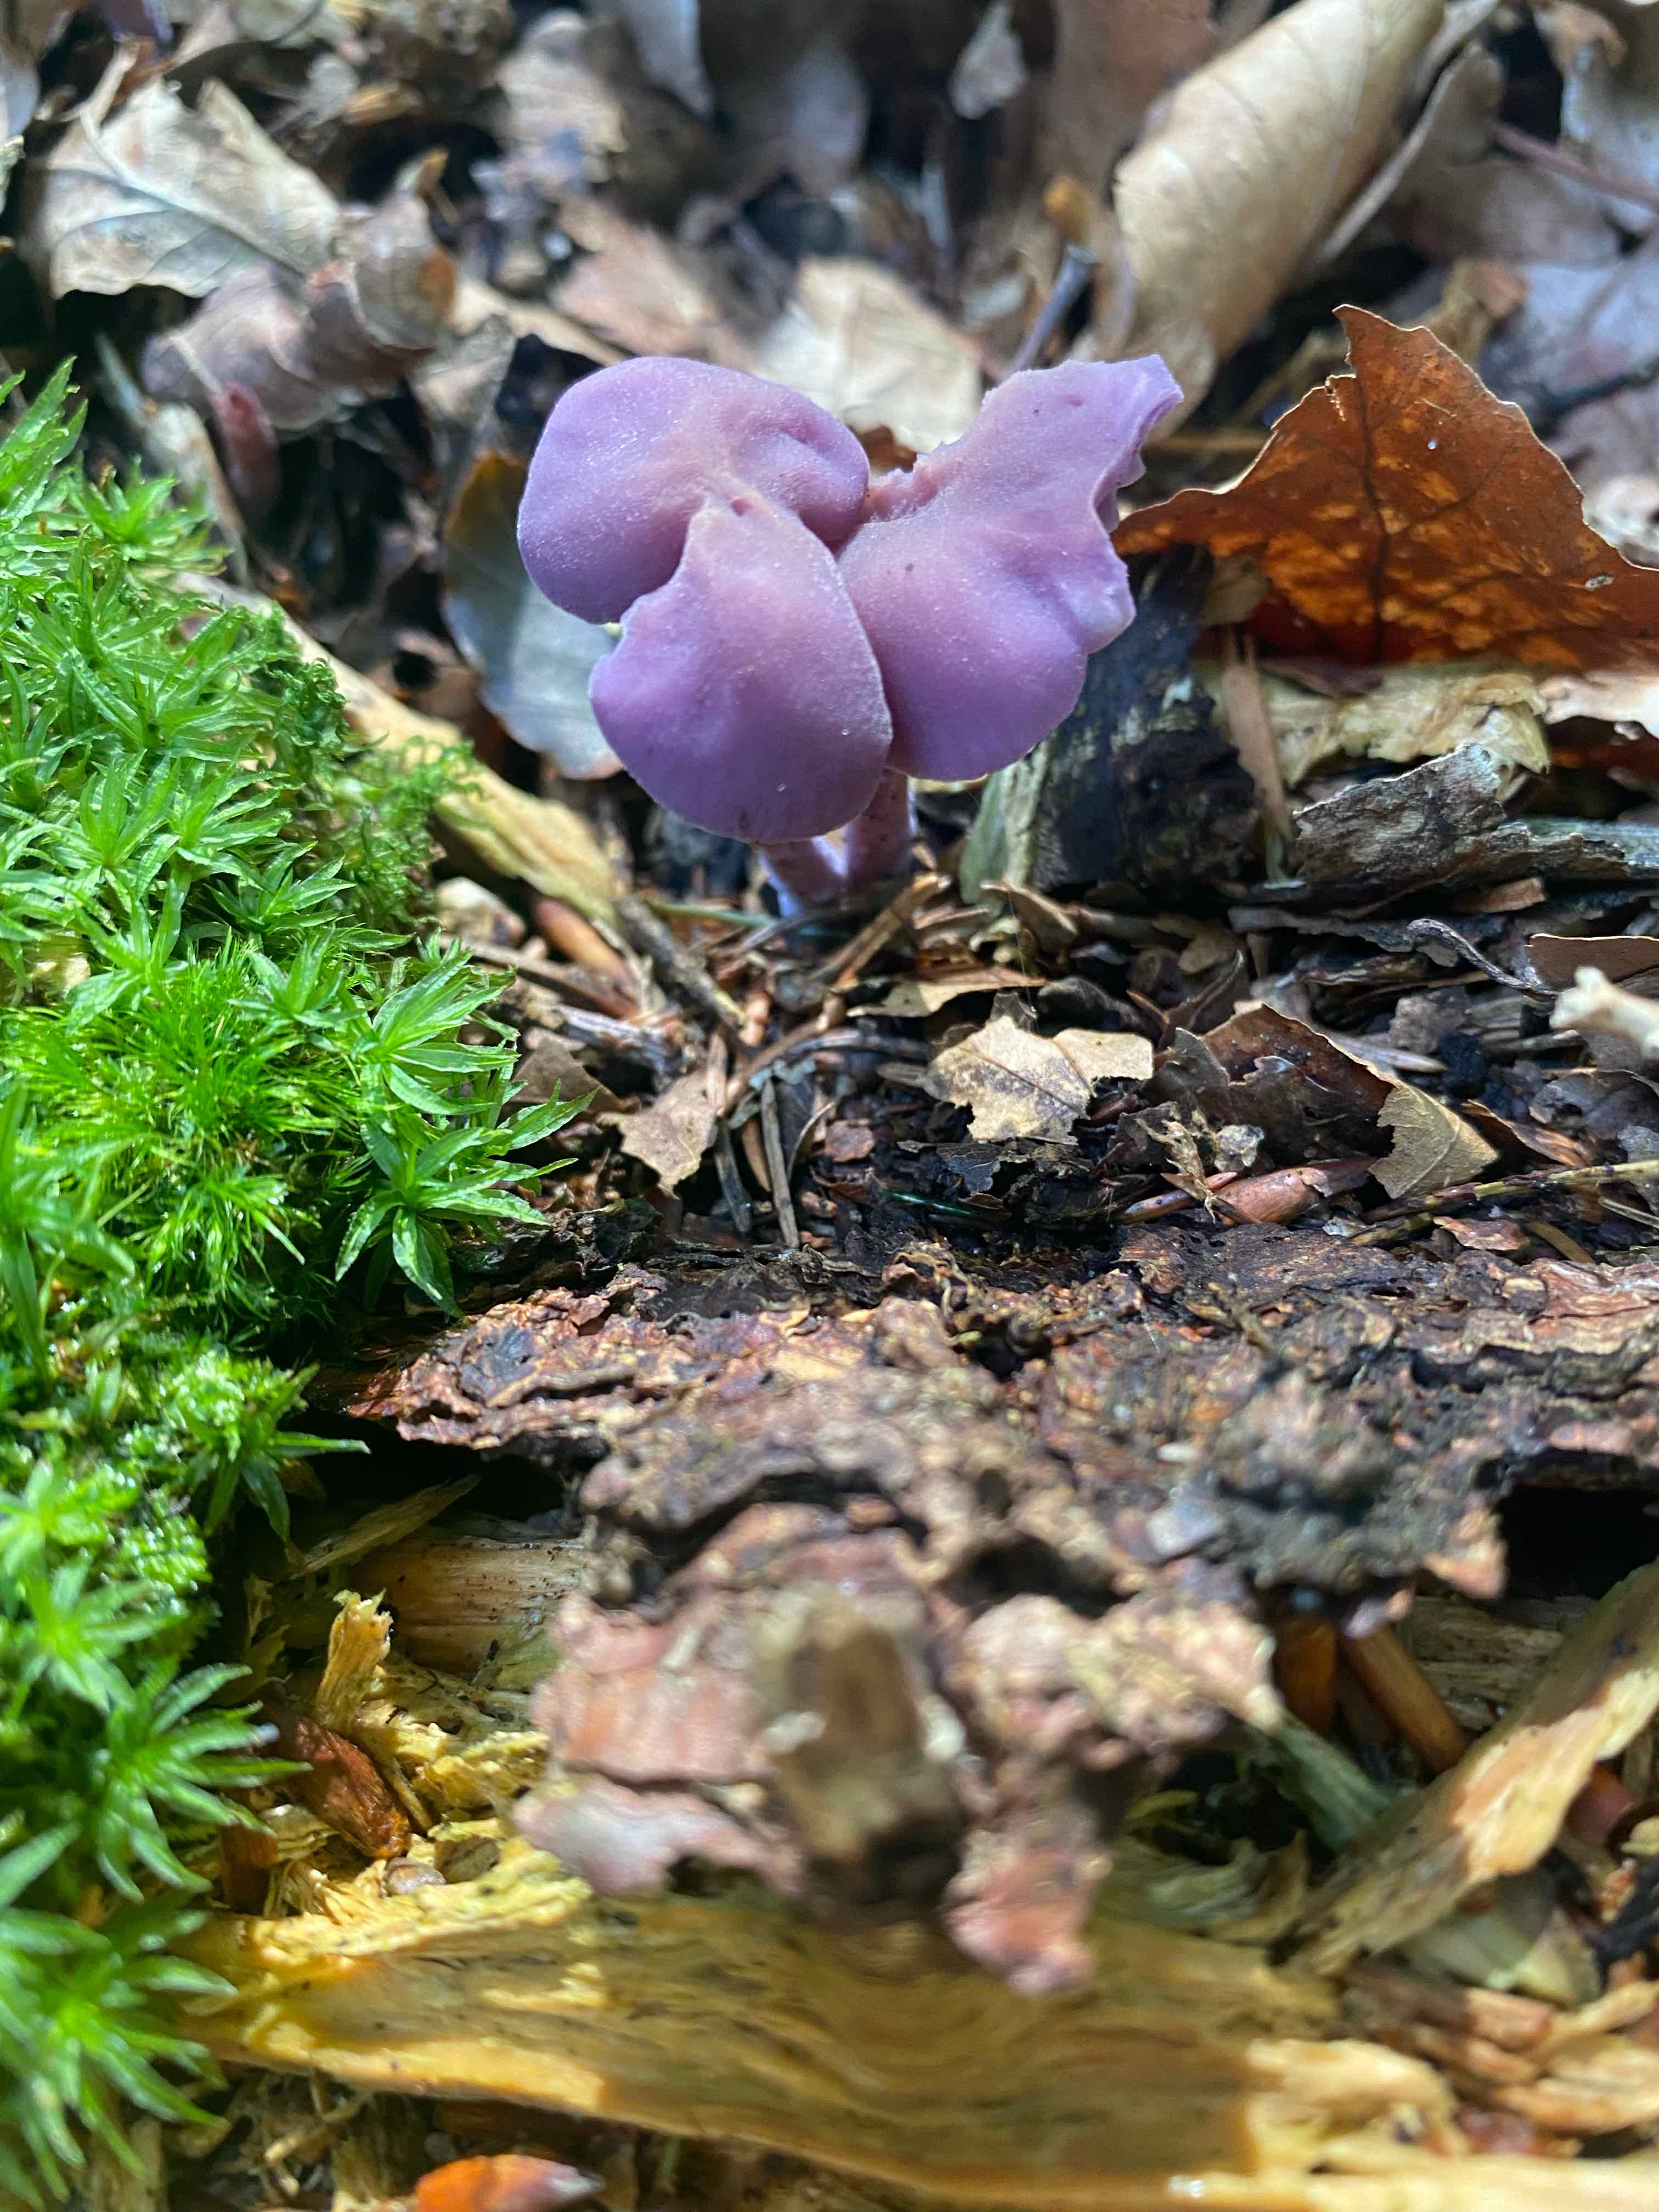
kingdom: Fungi
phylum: Basidiomycota
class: Agaricomycetes
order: Agaricales
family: Hydnangiaceae
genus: Laccaria
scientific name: Laccaria amethystina
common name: violet ametysthat
